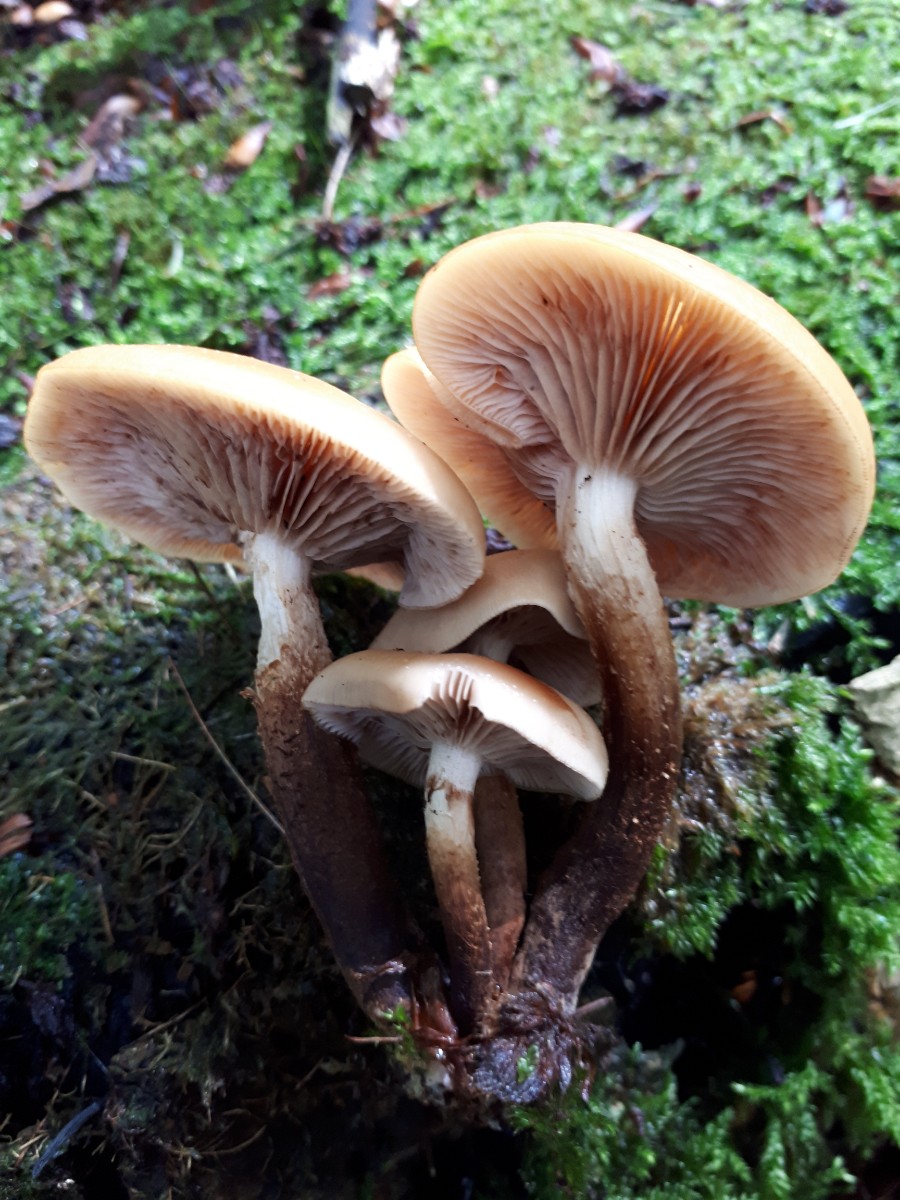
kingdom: Fungi
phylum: Basidiomycota
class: Agaricomycetes
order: Agaricales
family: Strophariaceae
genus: Kuehneromyces
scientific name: Kuehneromyces mutabilis
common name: foranderlig skælhat
